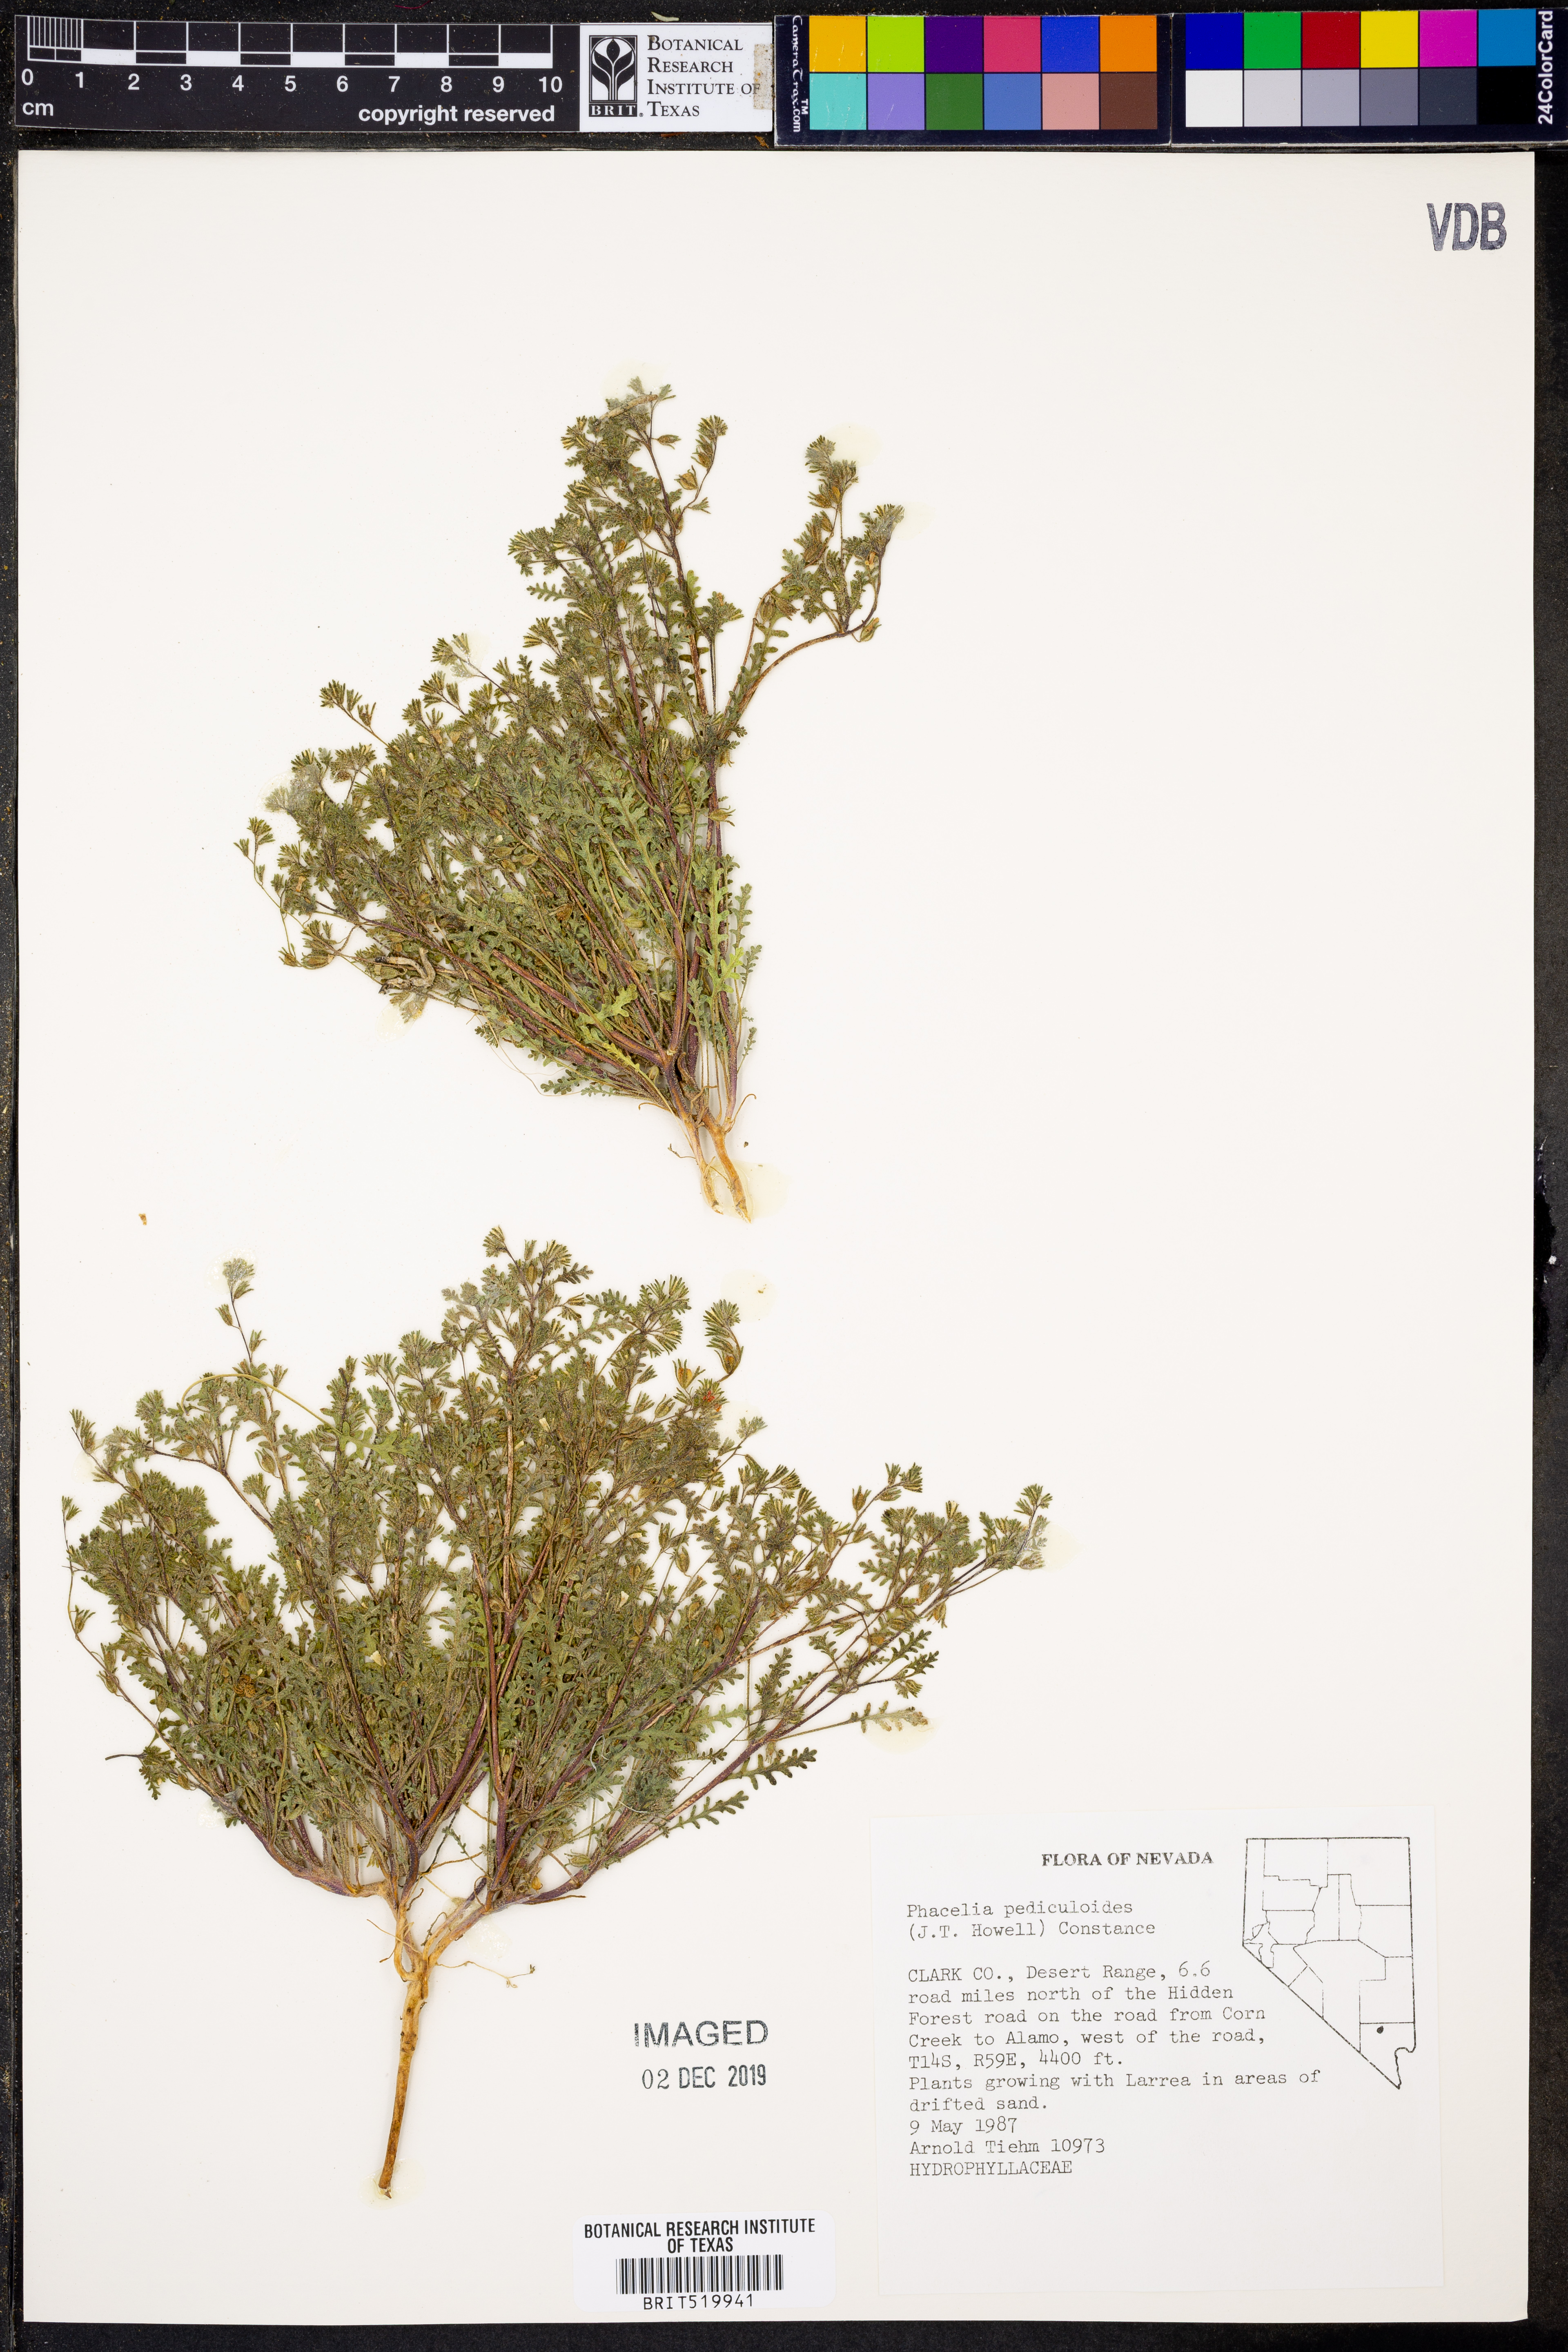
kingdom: Plantae
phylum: Tracheophyta
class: Magnoliopsida
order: Boraginales
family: Hydrophyllaceae
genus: Phacelia
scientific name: Phacelia ivesiana
